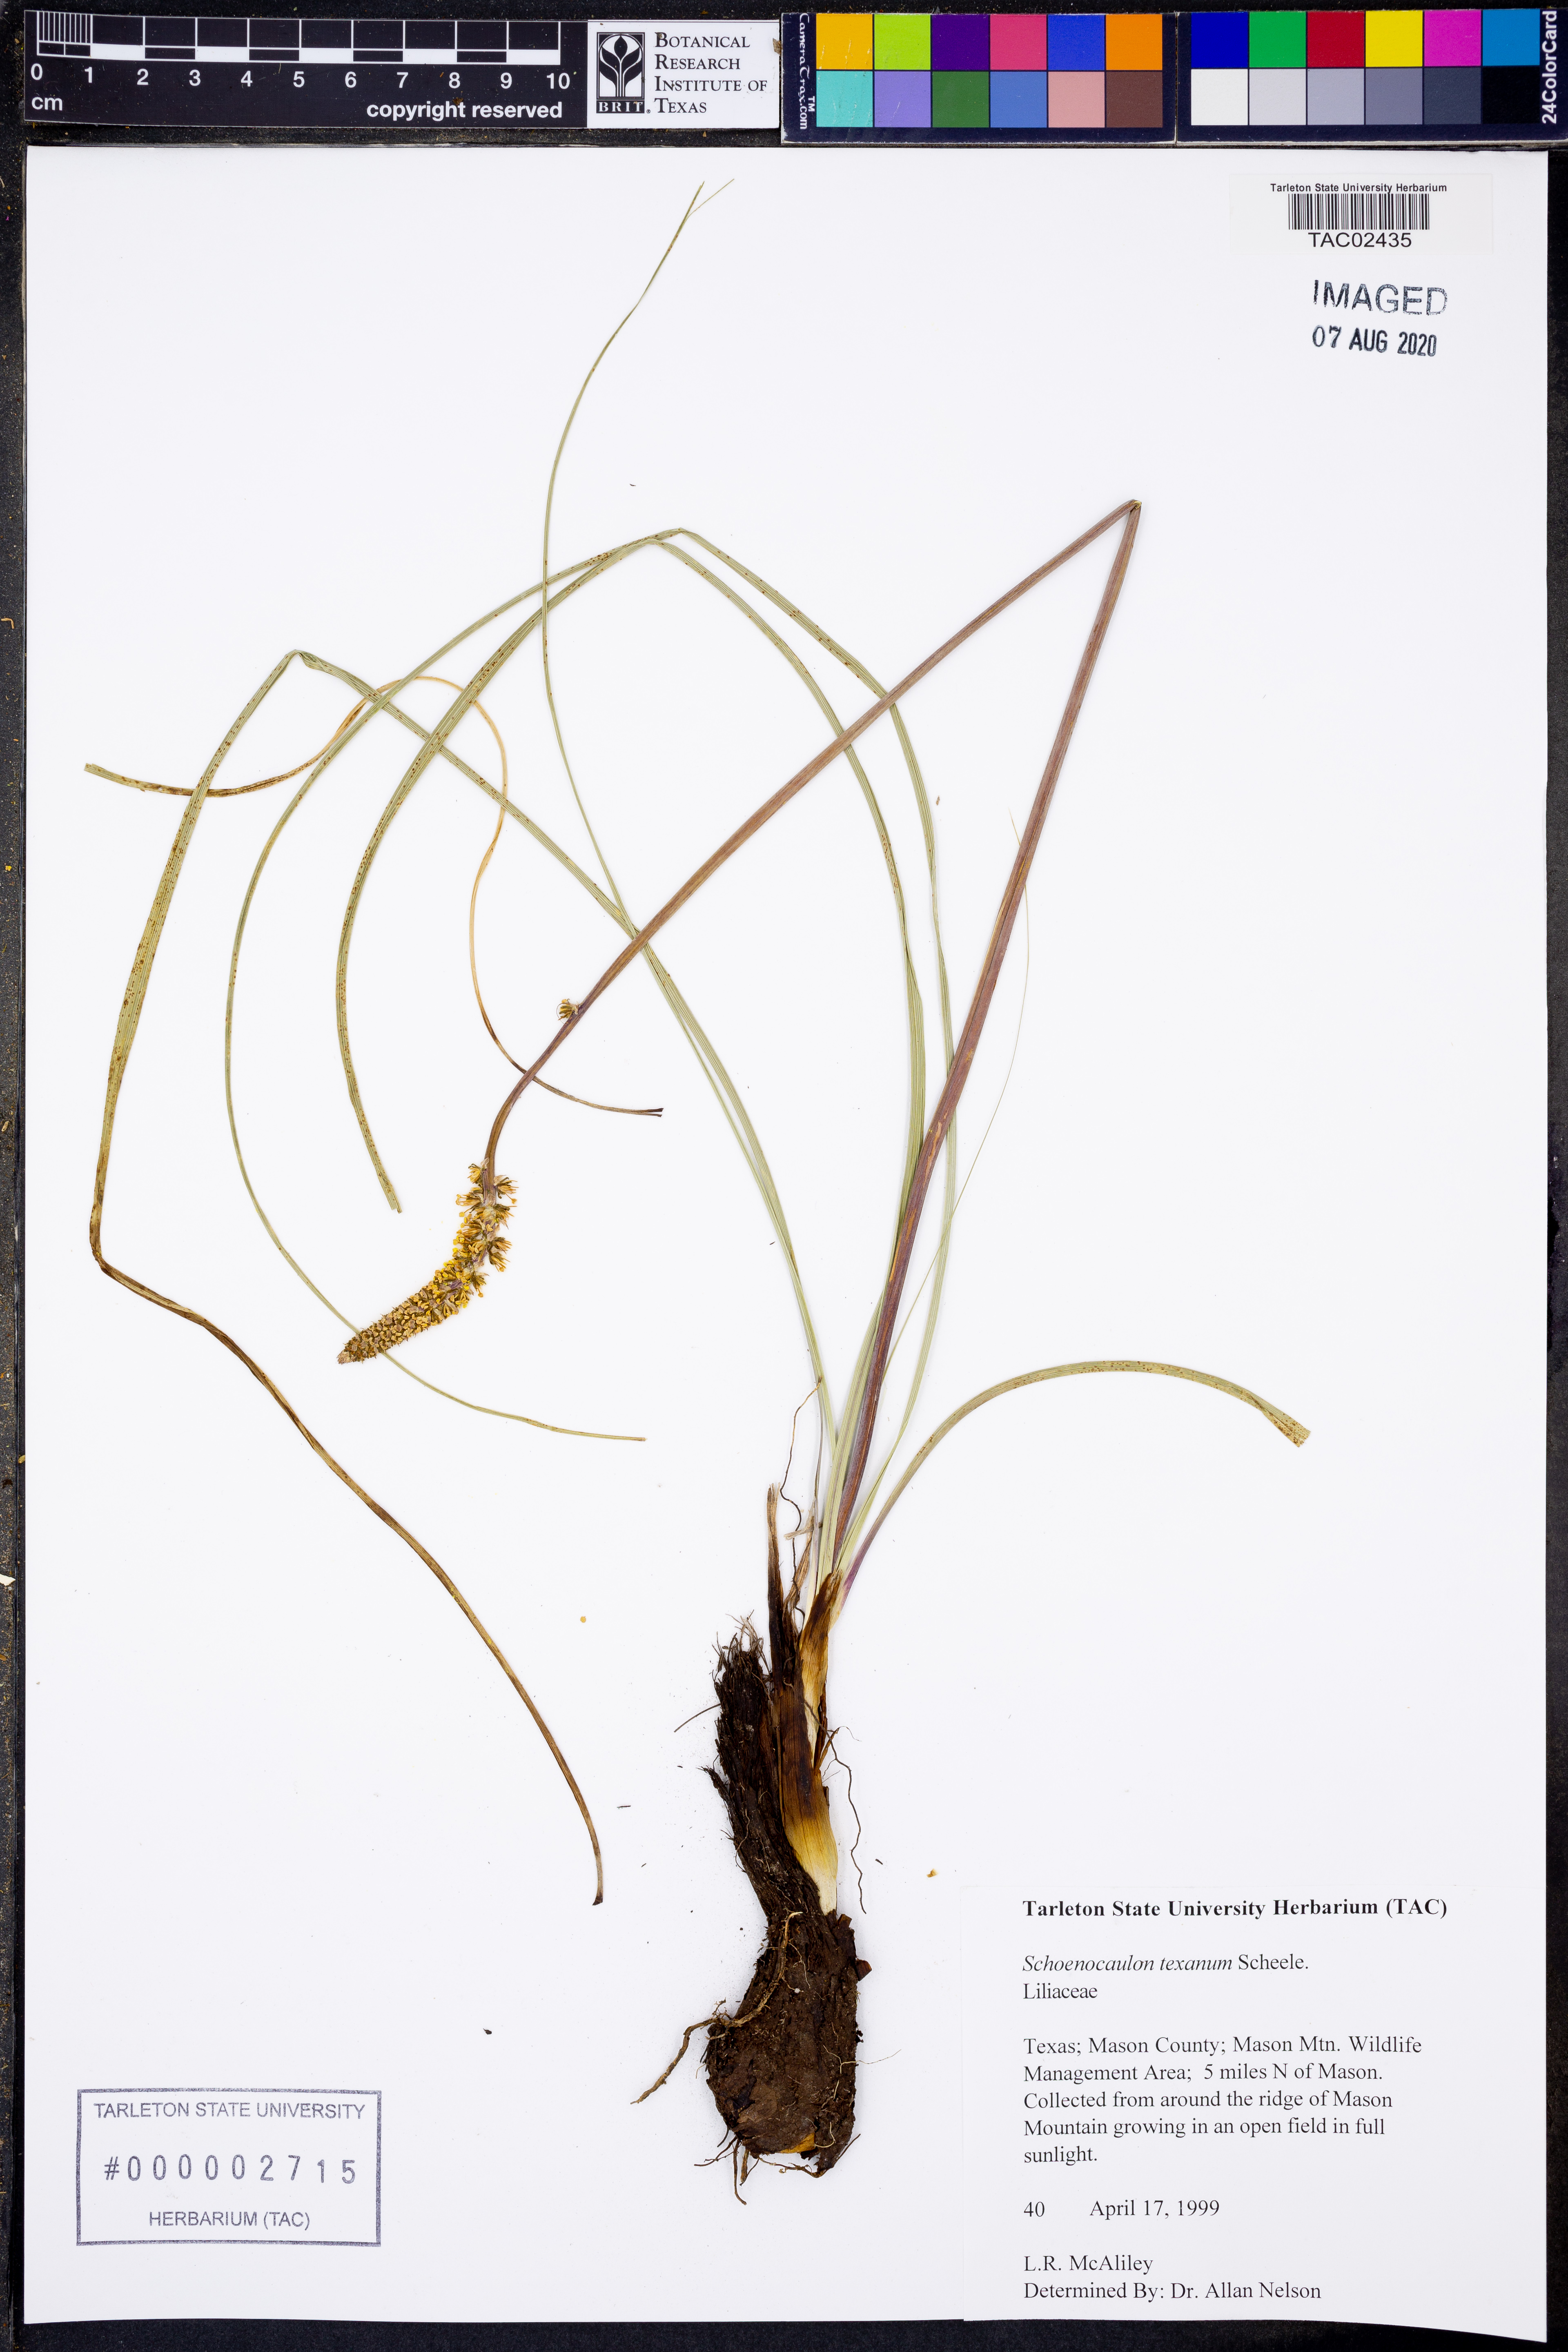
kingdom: Plantae
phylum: Tracheophyta
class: Liliopsida
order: Liliales
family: Melanthiaceae
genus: Schoenocaulon
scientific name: Schoenocaulon texanum
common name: Texas feather-shank
